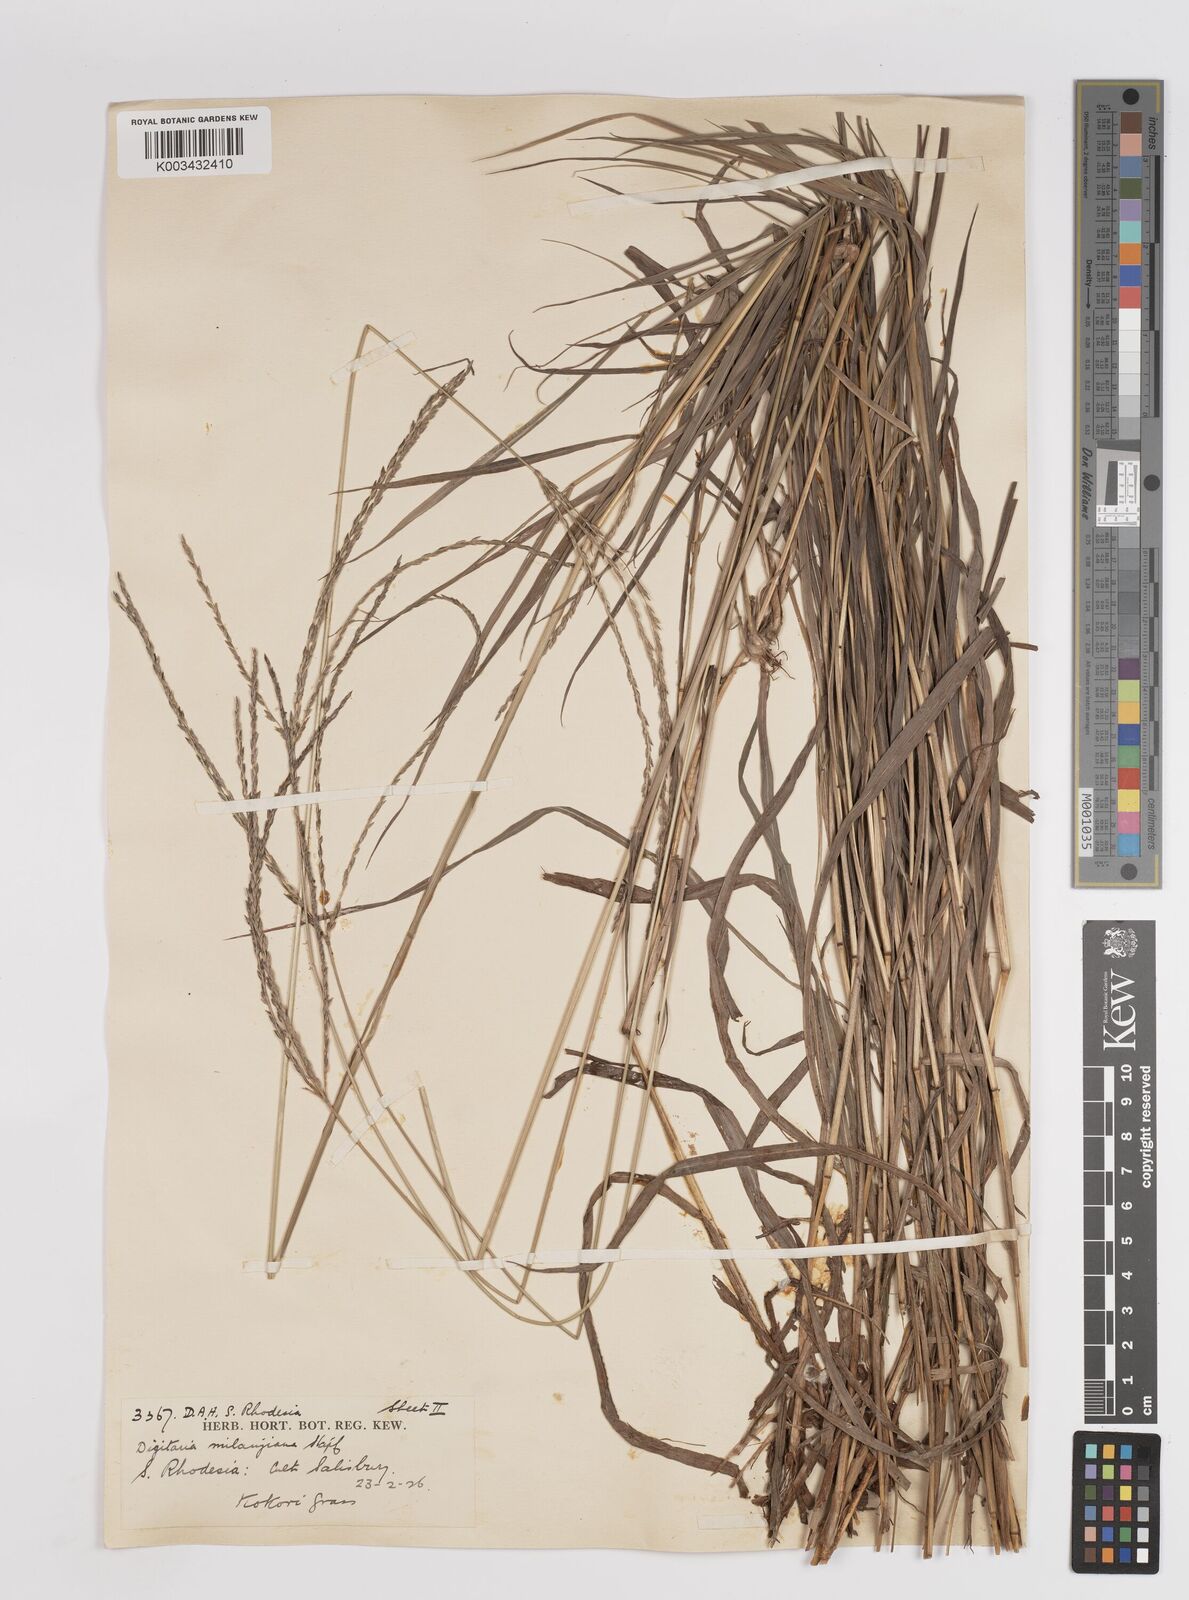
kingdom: Plantae
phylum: Tracheophyta
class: Liliopsida
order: Poales
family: Poaceae
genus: Digitaria
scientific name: Digitaria eriantha
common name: Digitgrass
